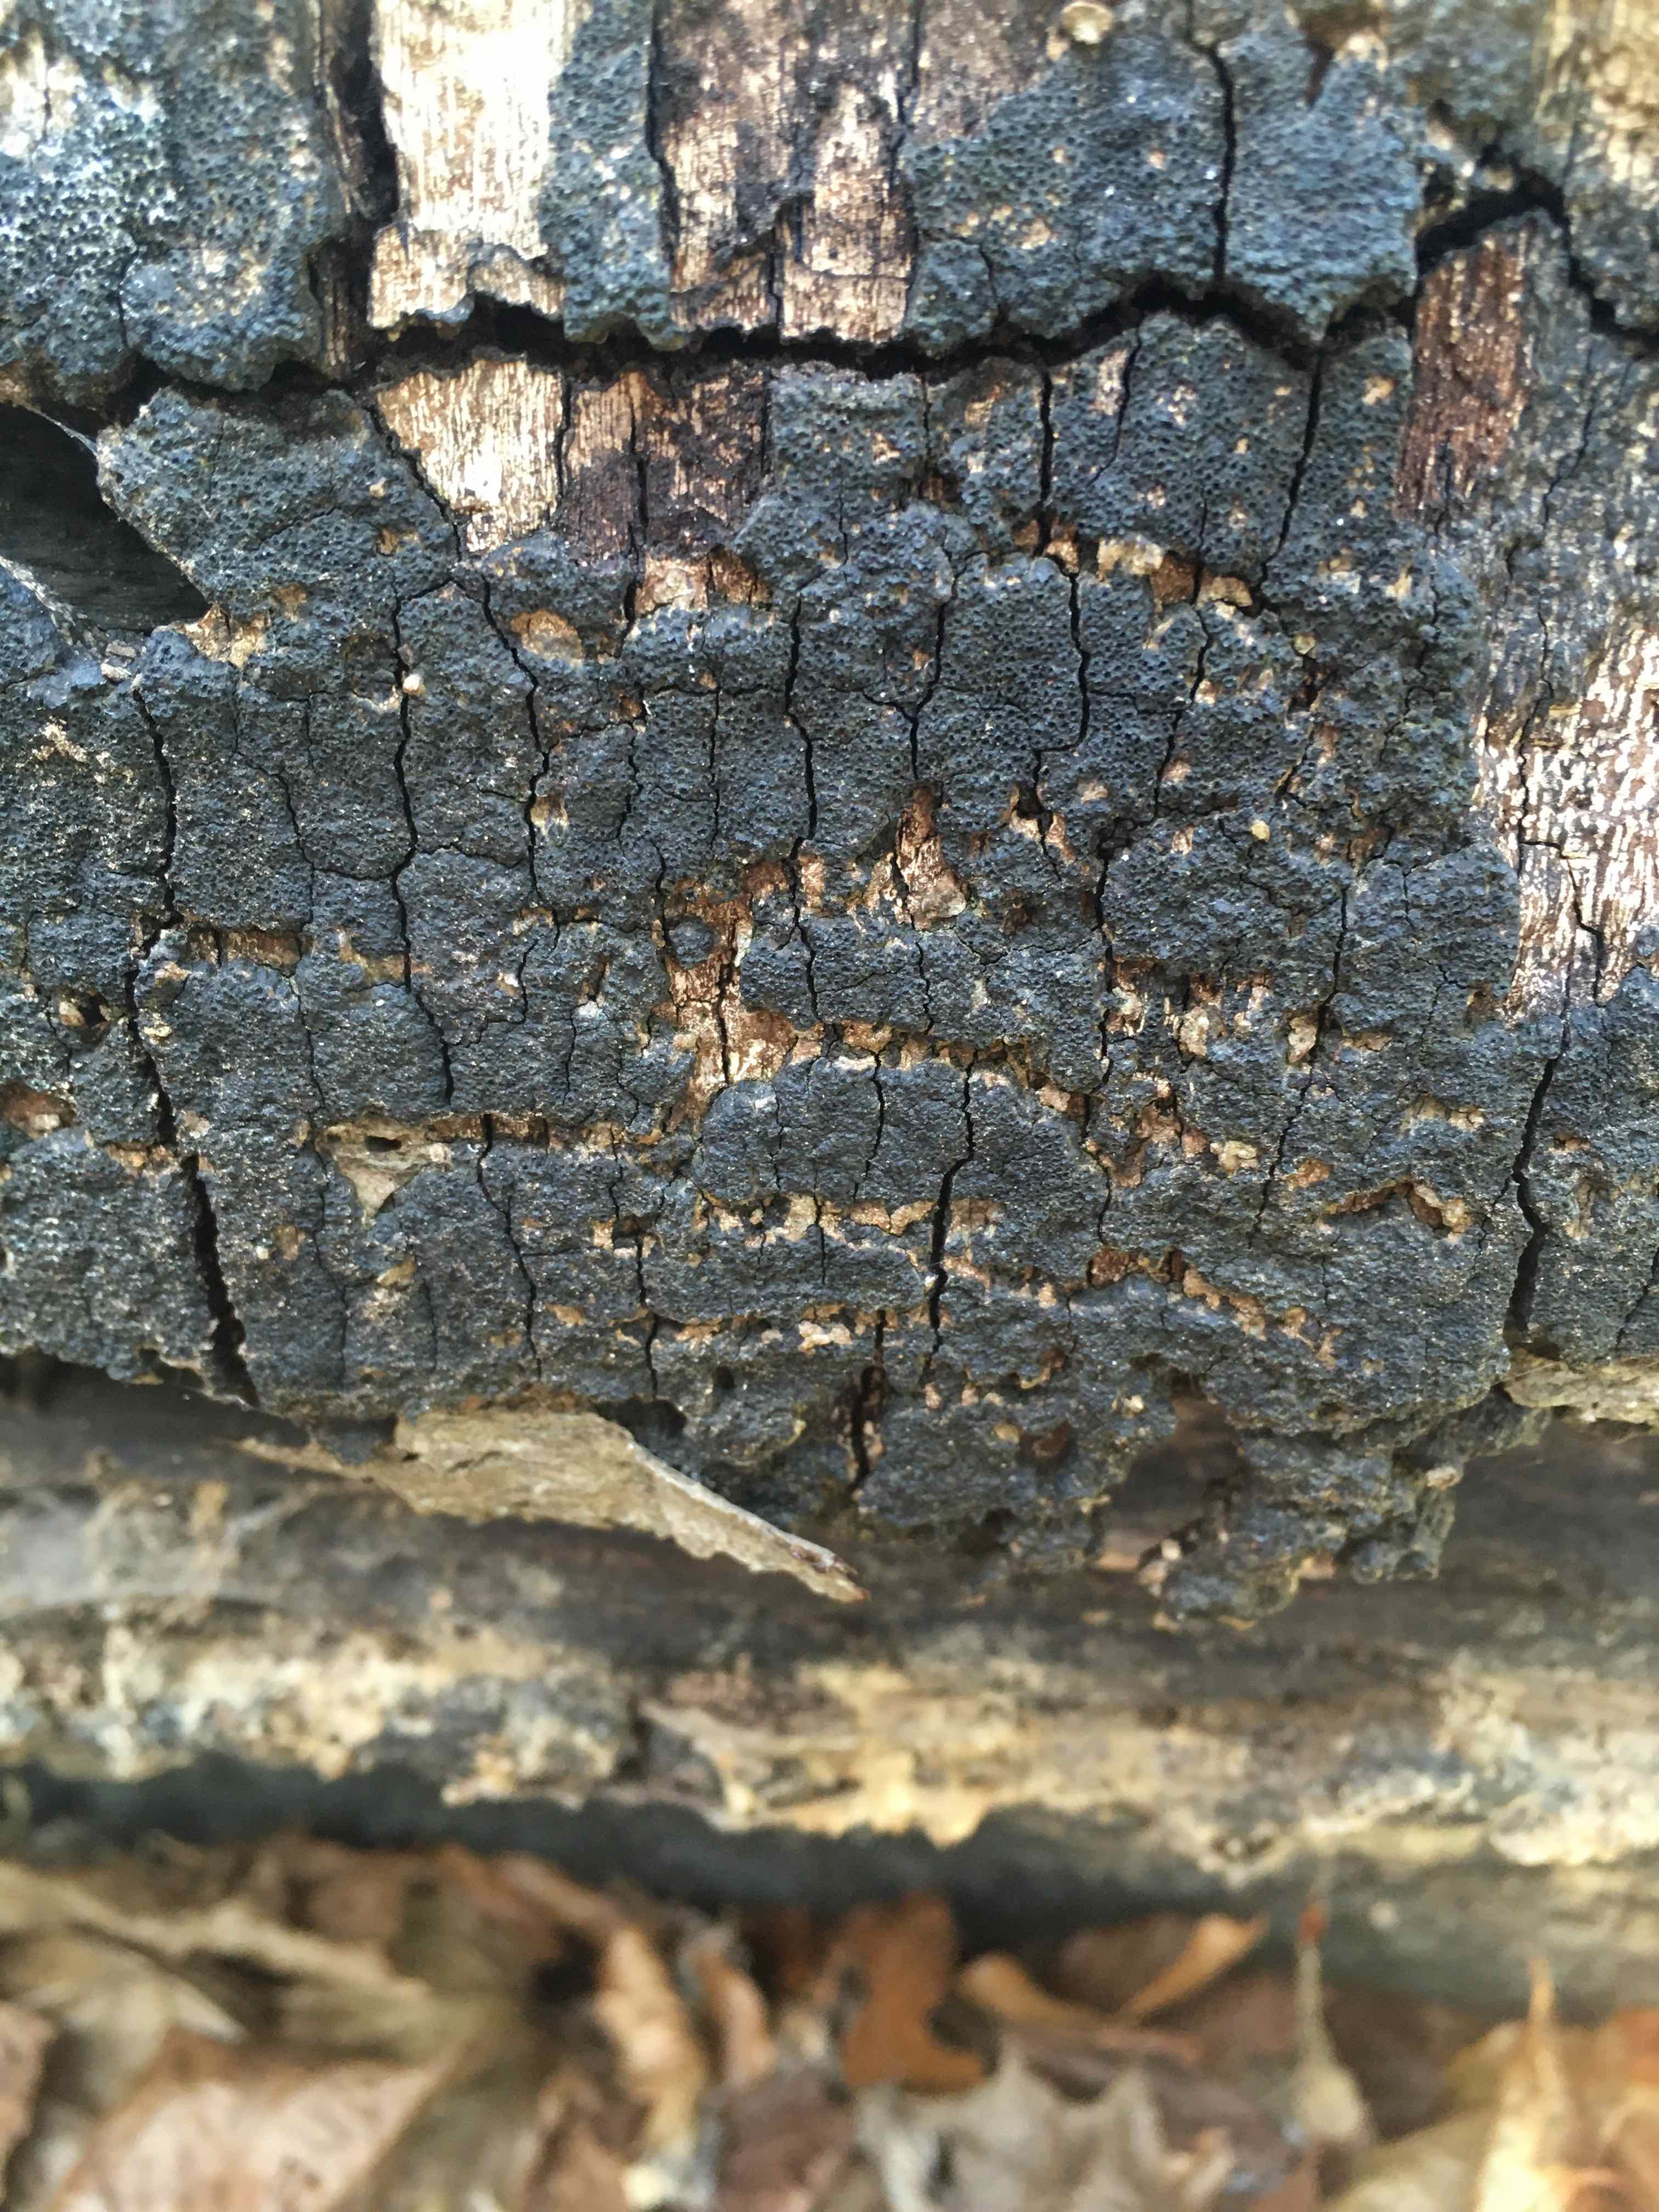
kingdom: Fungi
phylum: Ascomycota
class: Sordariomycetes
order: Xylariales
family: Diatrypaceae
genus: Eutypa
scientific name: Eutypa spinosa
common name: grov kulskorpe
